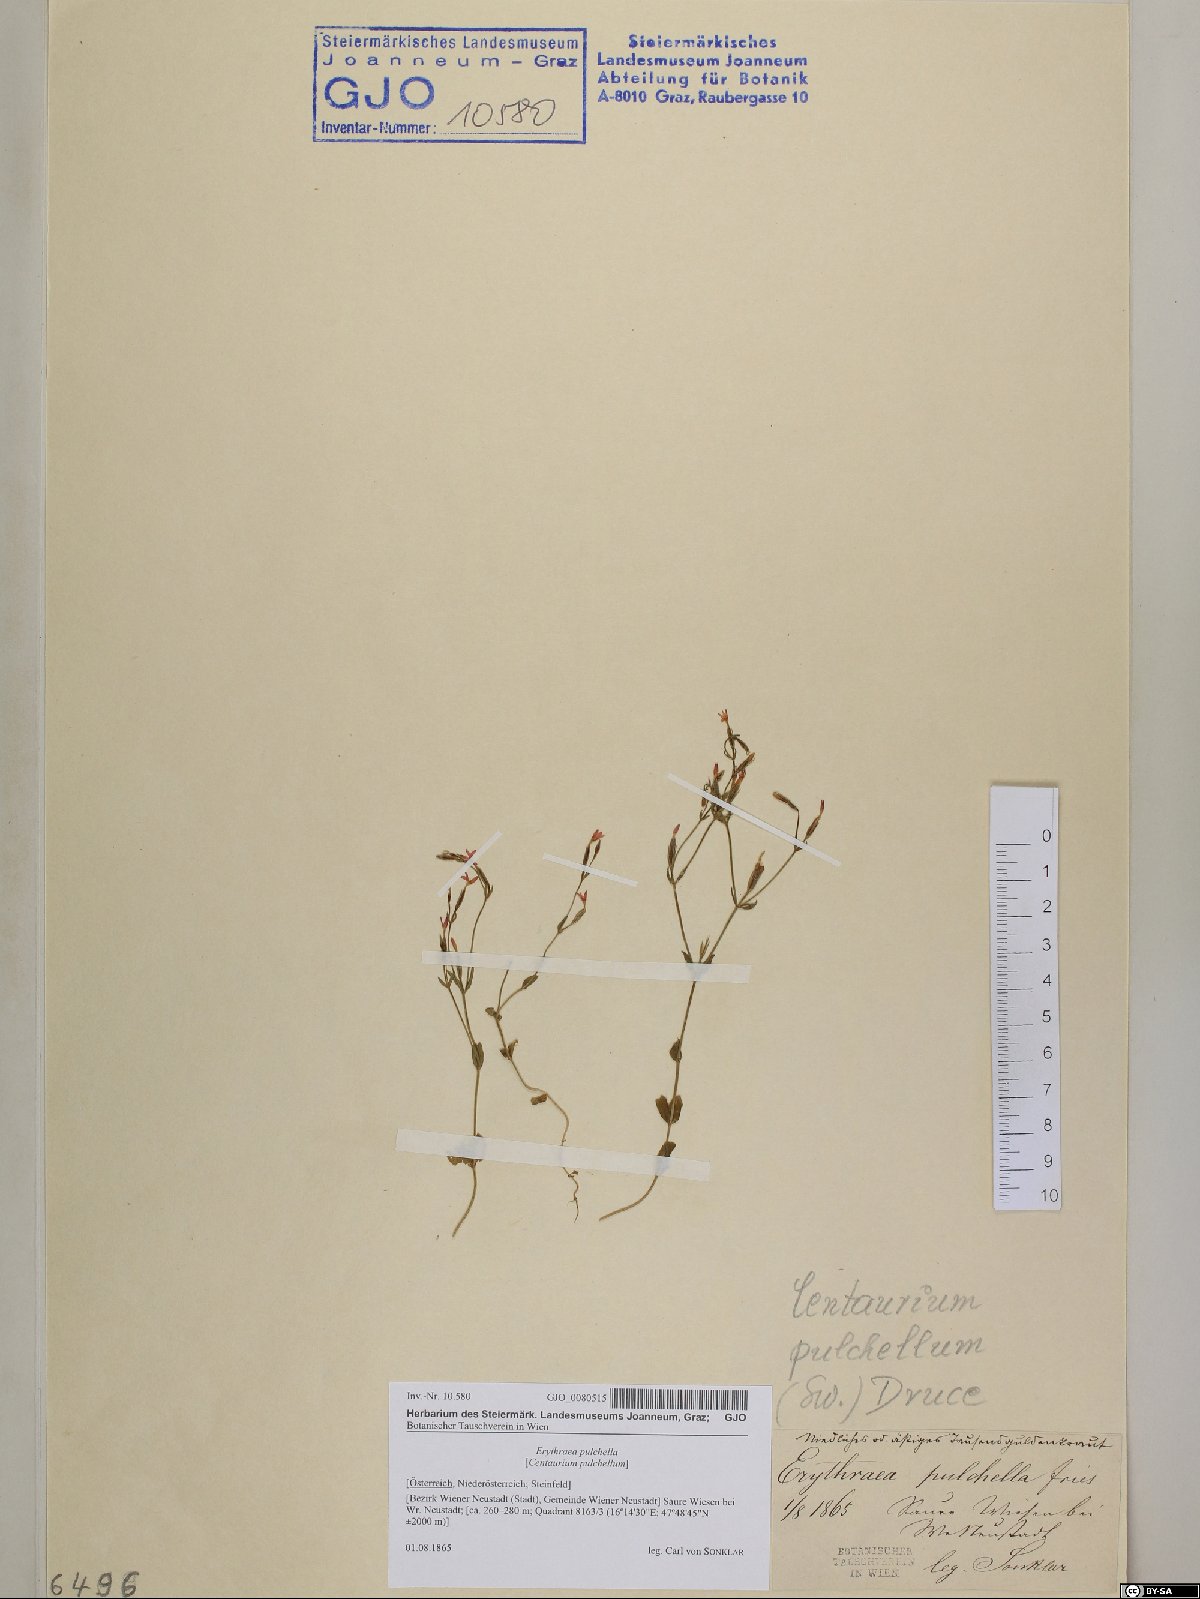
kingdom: Plantae
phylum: Tracheophyta
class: Magnoliopsida
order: Gentianales
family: Gentianaceae
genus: Centaurium
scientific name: Centaurium pulchellum
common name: Lesser centaury
